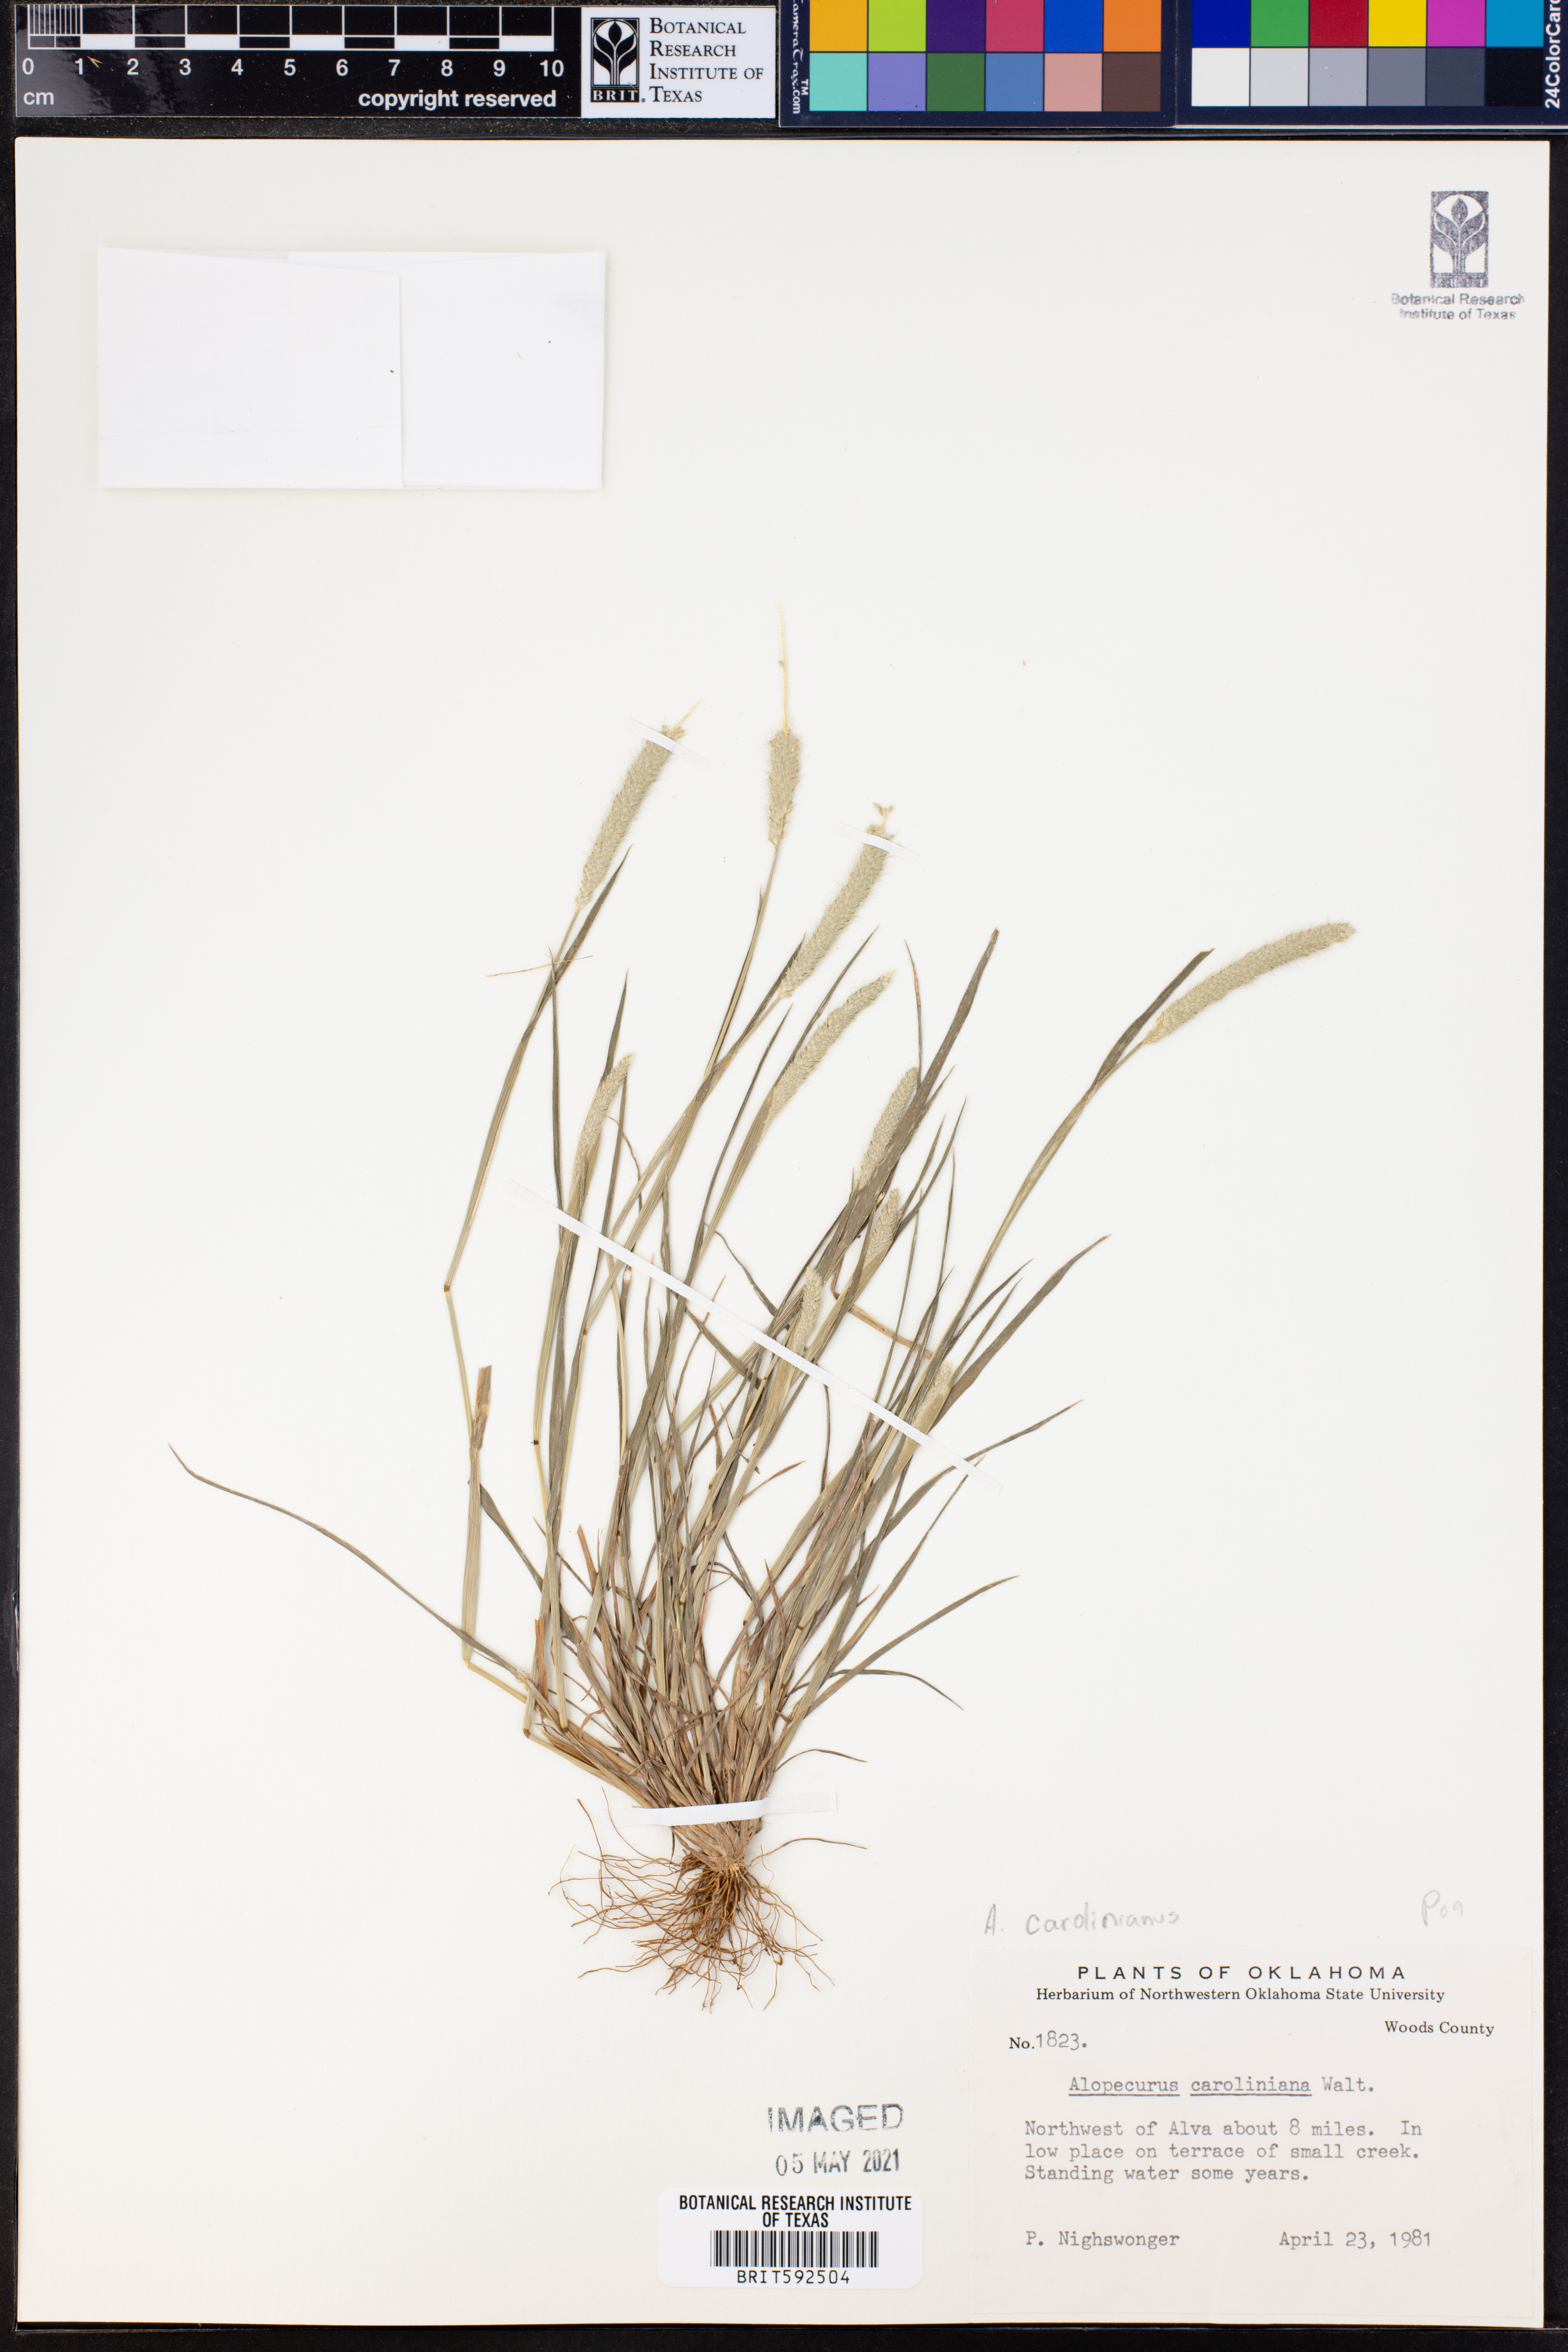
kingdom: Plantae
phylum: Tracheophyta
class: Liliopsida
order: Poales
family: Poaceae
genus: Alopecurus
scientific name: Alopecurus carolinianus
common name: Tufted foxtail
